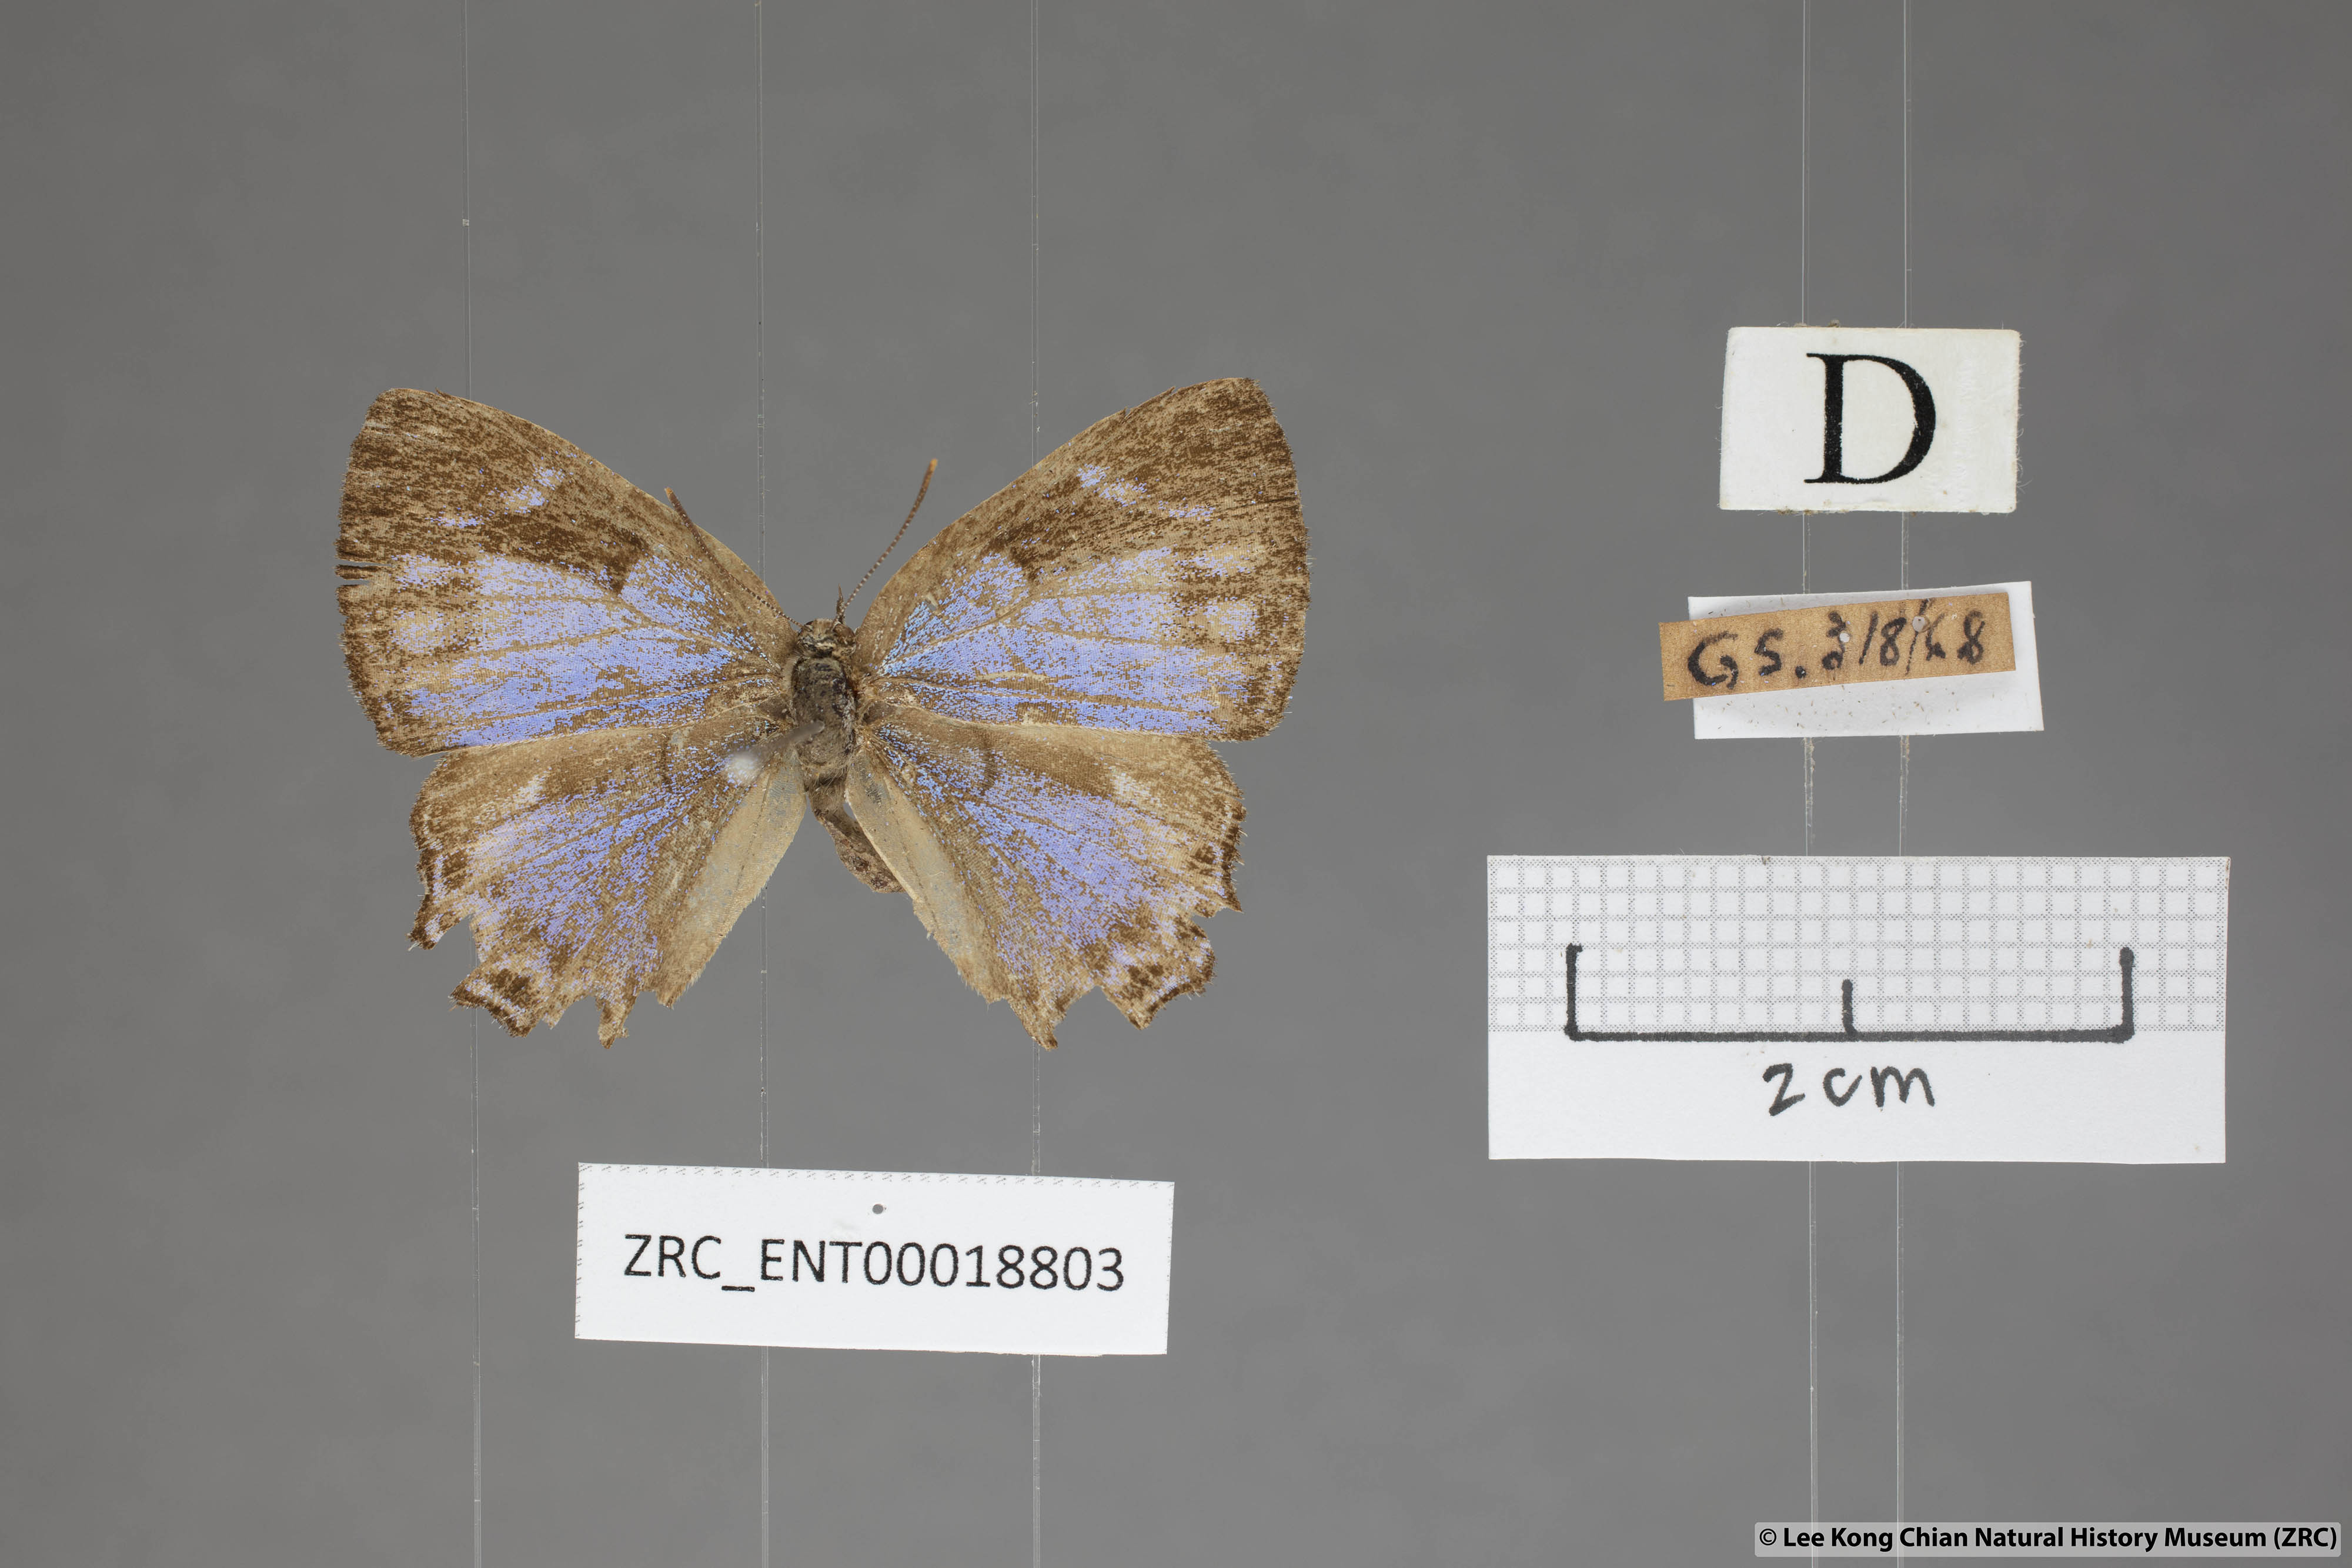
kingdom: Animalia
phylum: Arthropoda
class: Insecta
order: Lepidoptera
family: Lycaenidae
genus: Poritia
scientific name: Poritia pleurata
